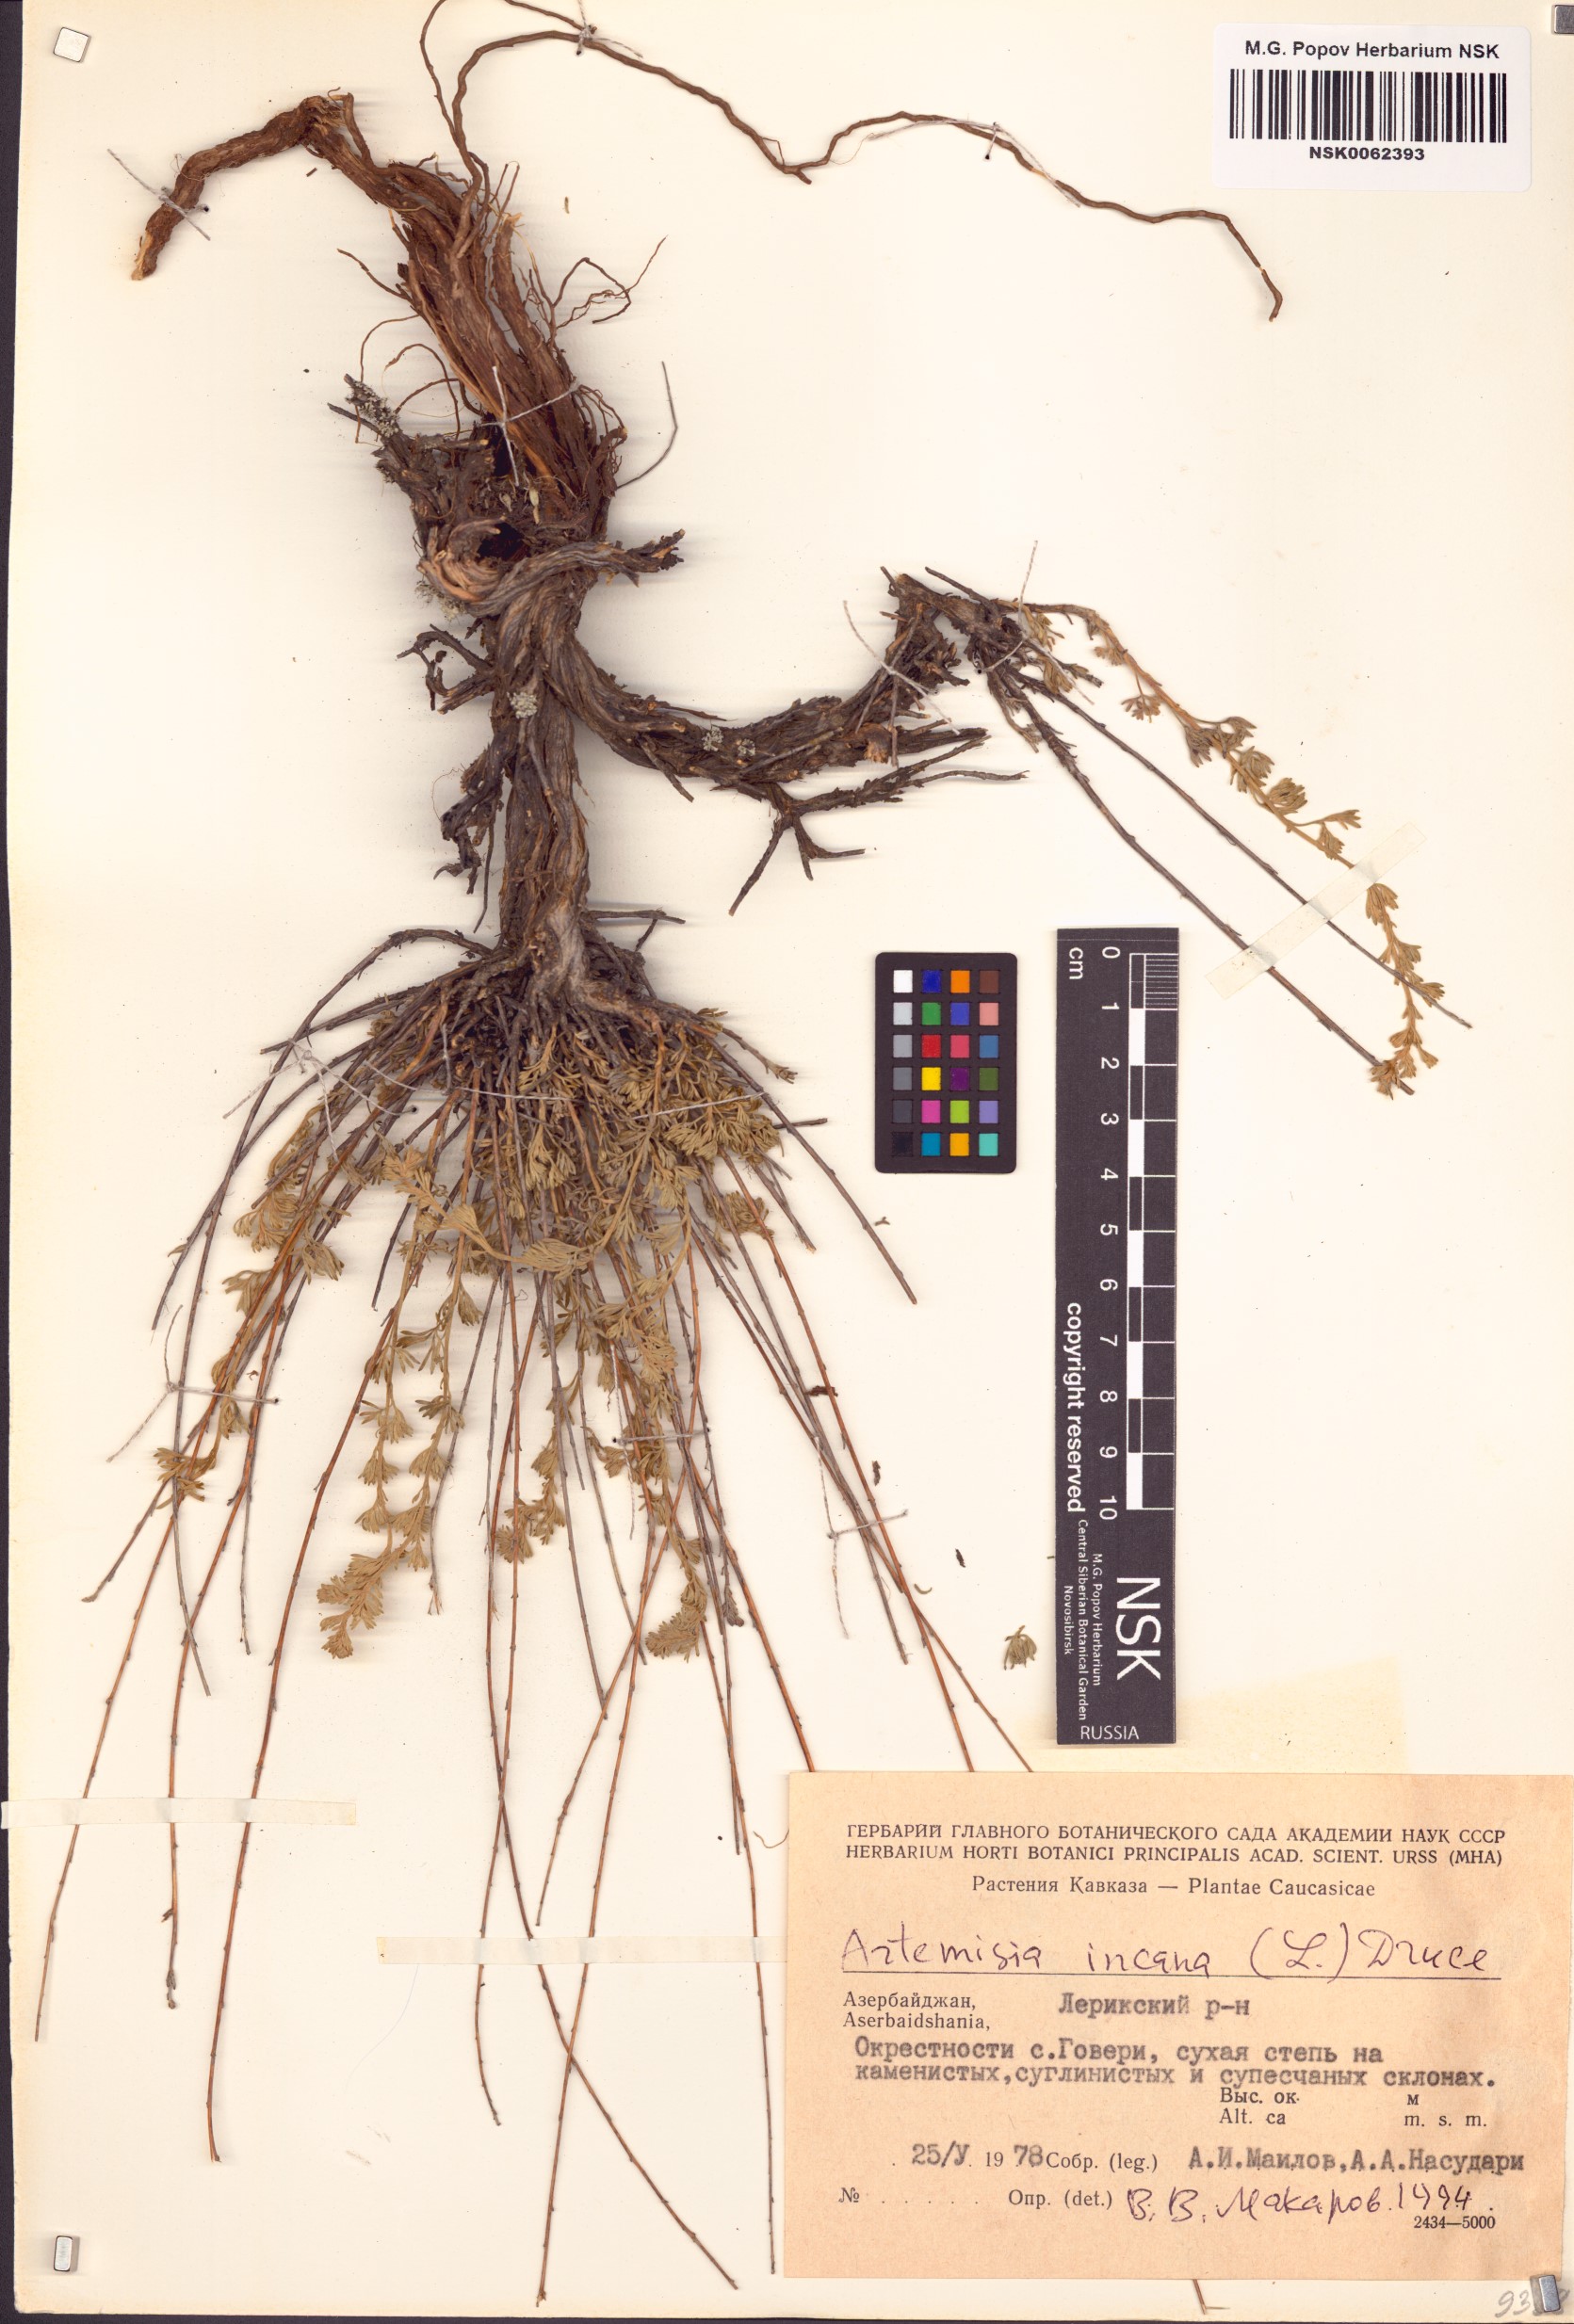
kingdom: Plantae
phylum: Tracheophyta
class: Magnoliopsida
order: Asterales
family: Asteraceae
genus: Artemisia
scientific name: Artemisia incana
